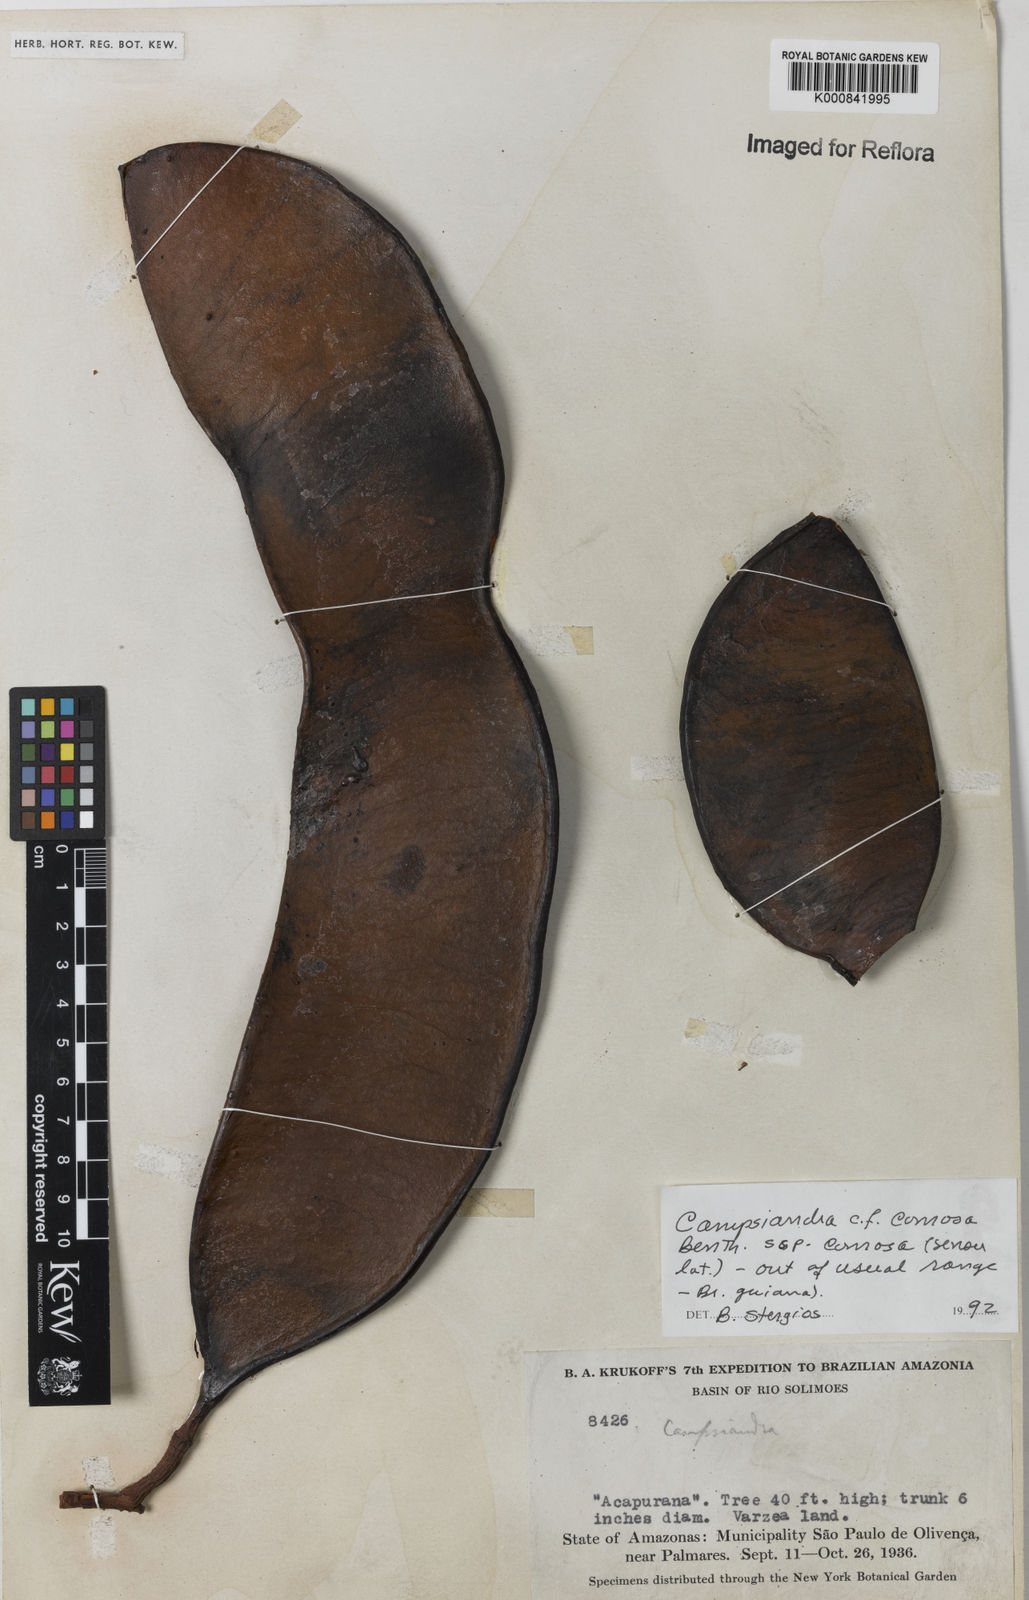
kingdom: Plantae
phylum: Tracheophyta
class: Magnoliopsida
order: Fabales
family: Fabaceae
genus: Campsiandra
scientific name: Campsiandra comosa
